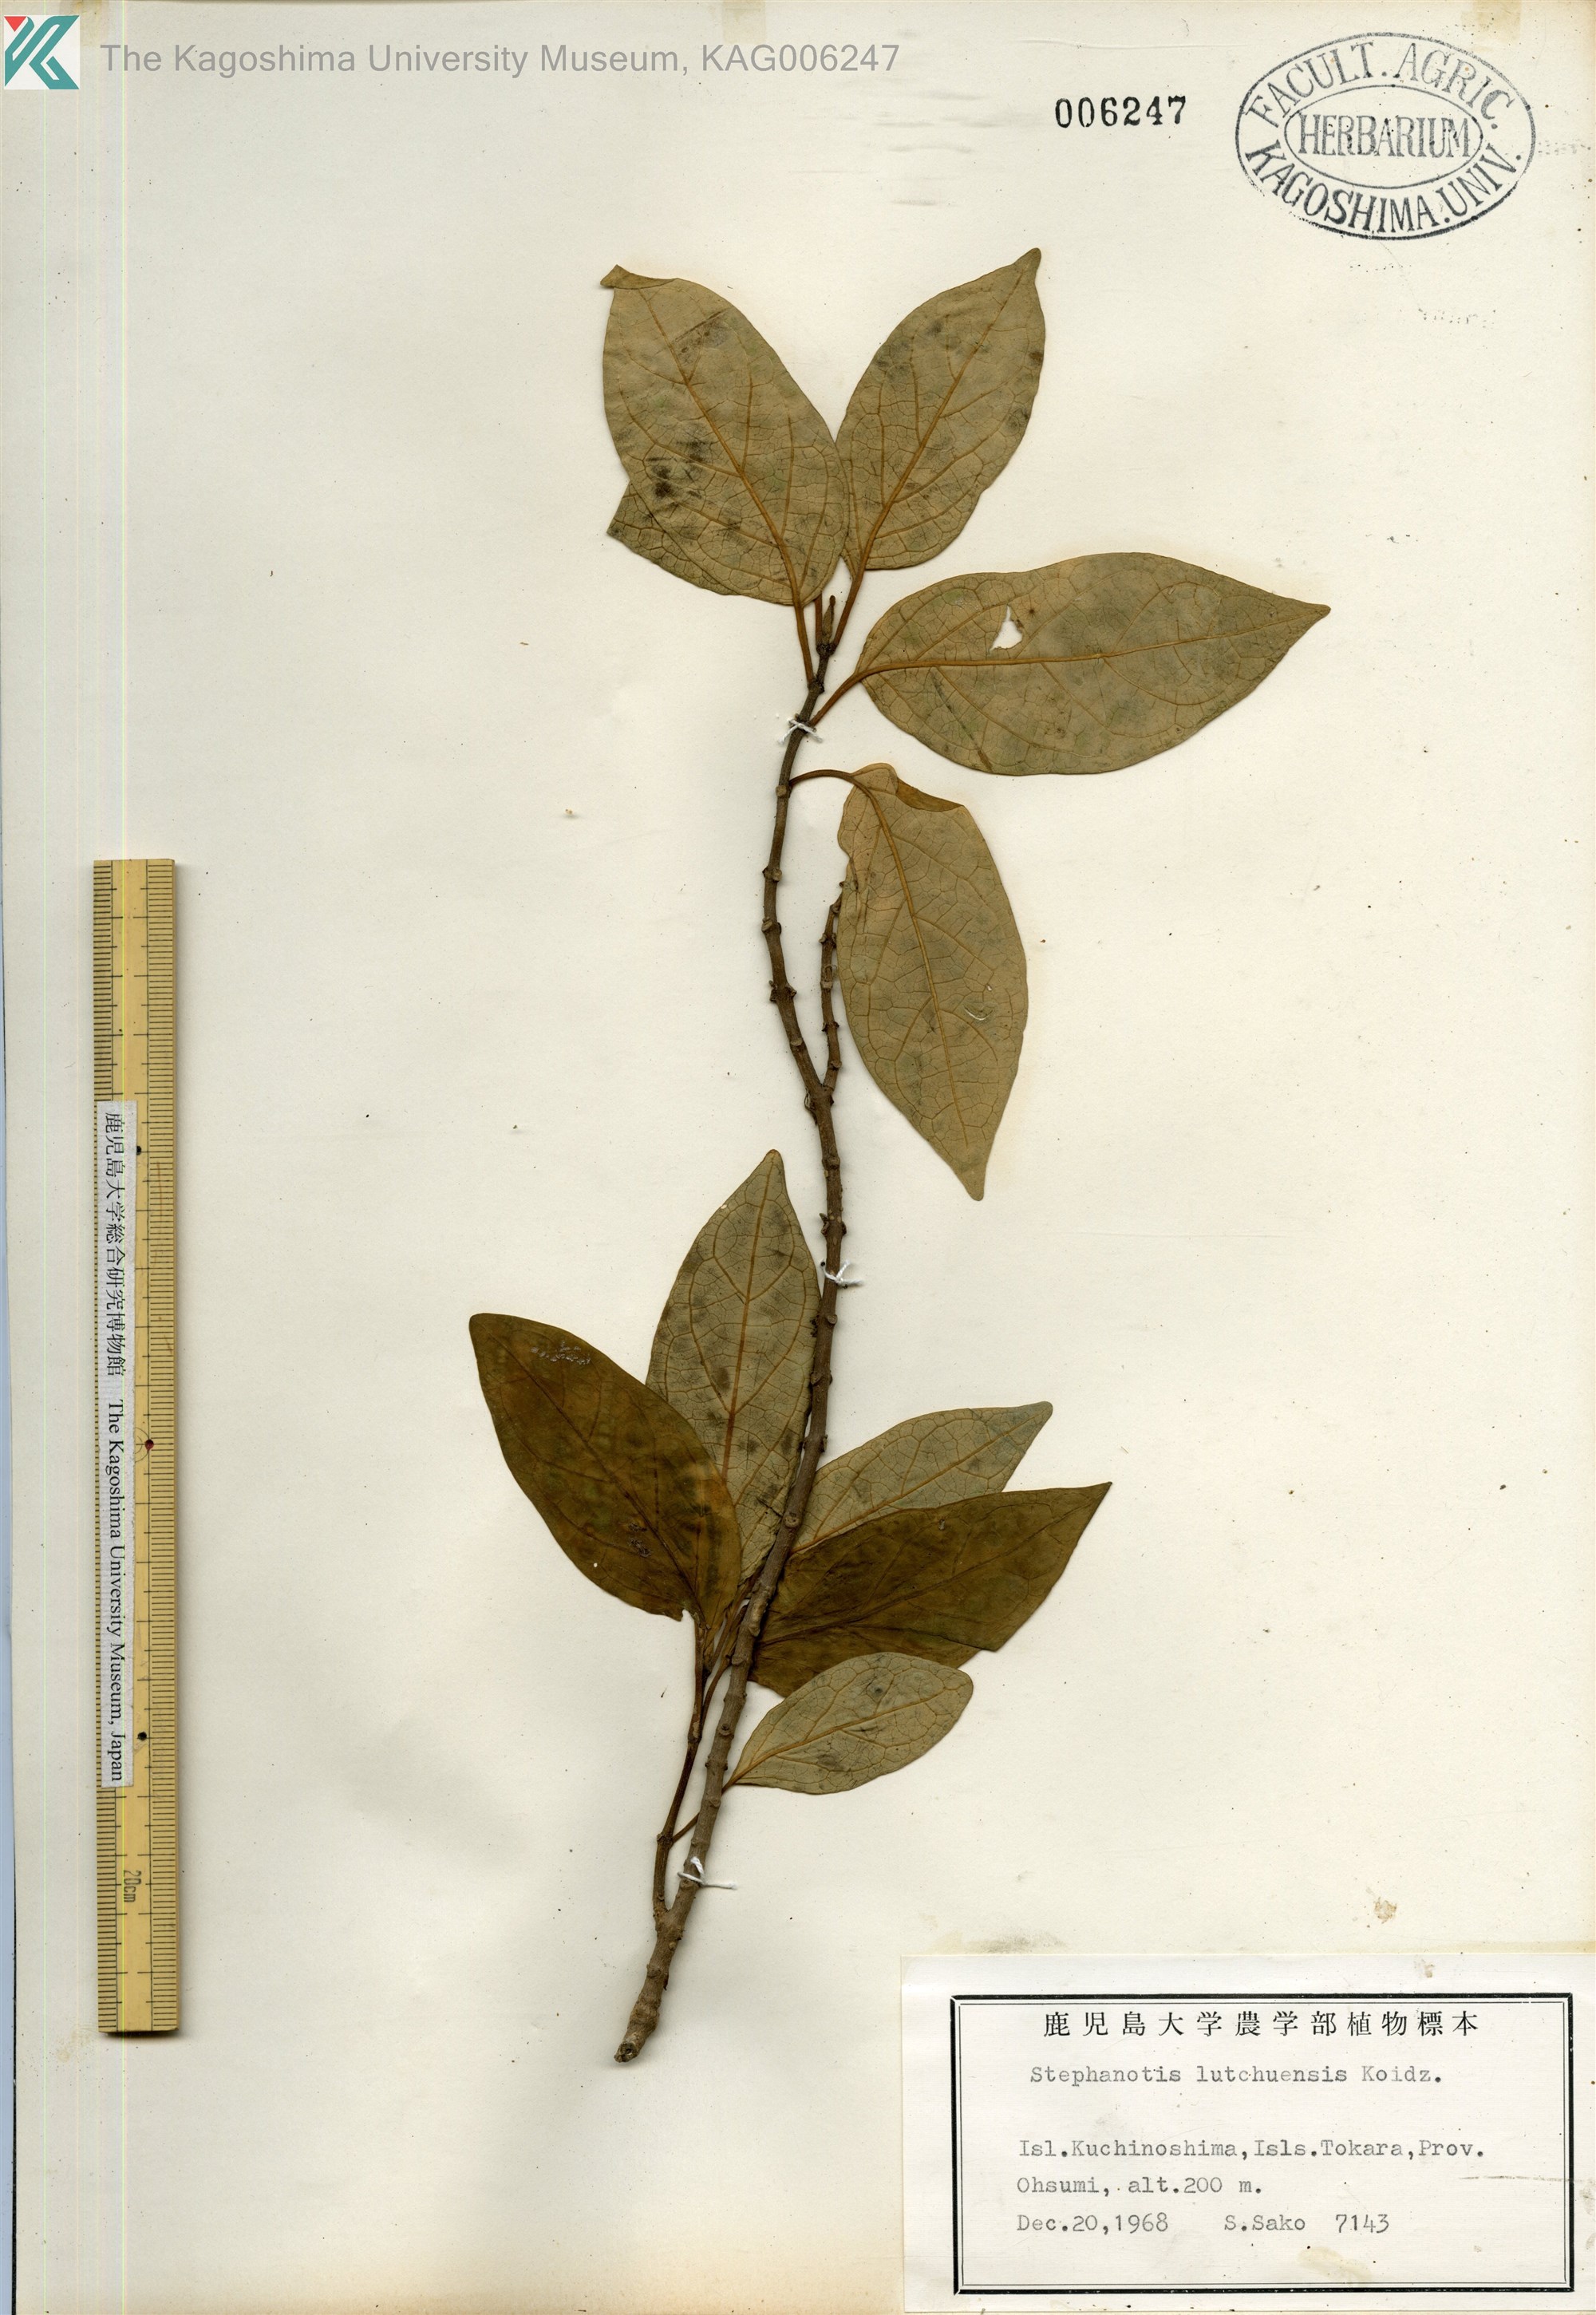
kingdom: Plantae
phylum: Tracheophyta
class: Magnoliopsida
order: Gentianales
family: Apocynaceae
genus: Jasminanthes
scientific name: Jasminanthes mucronata
